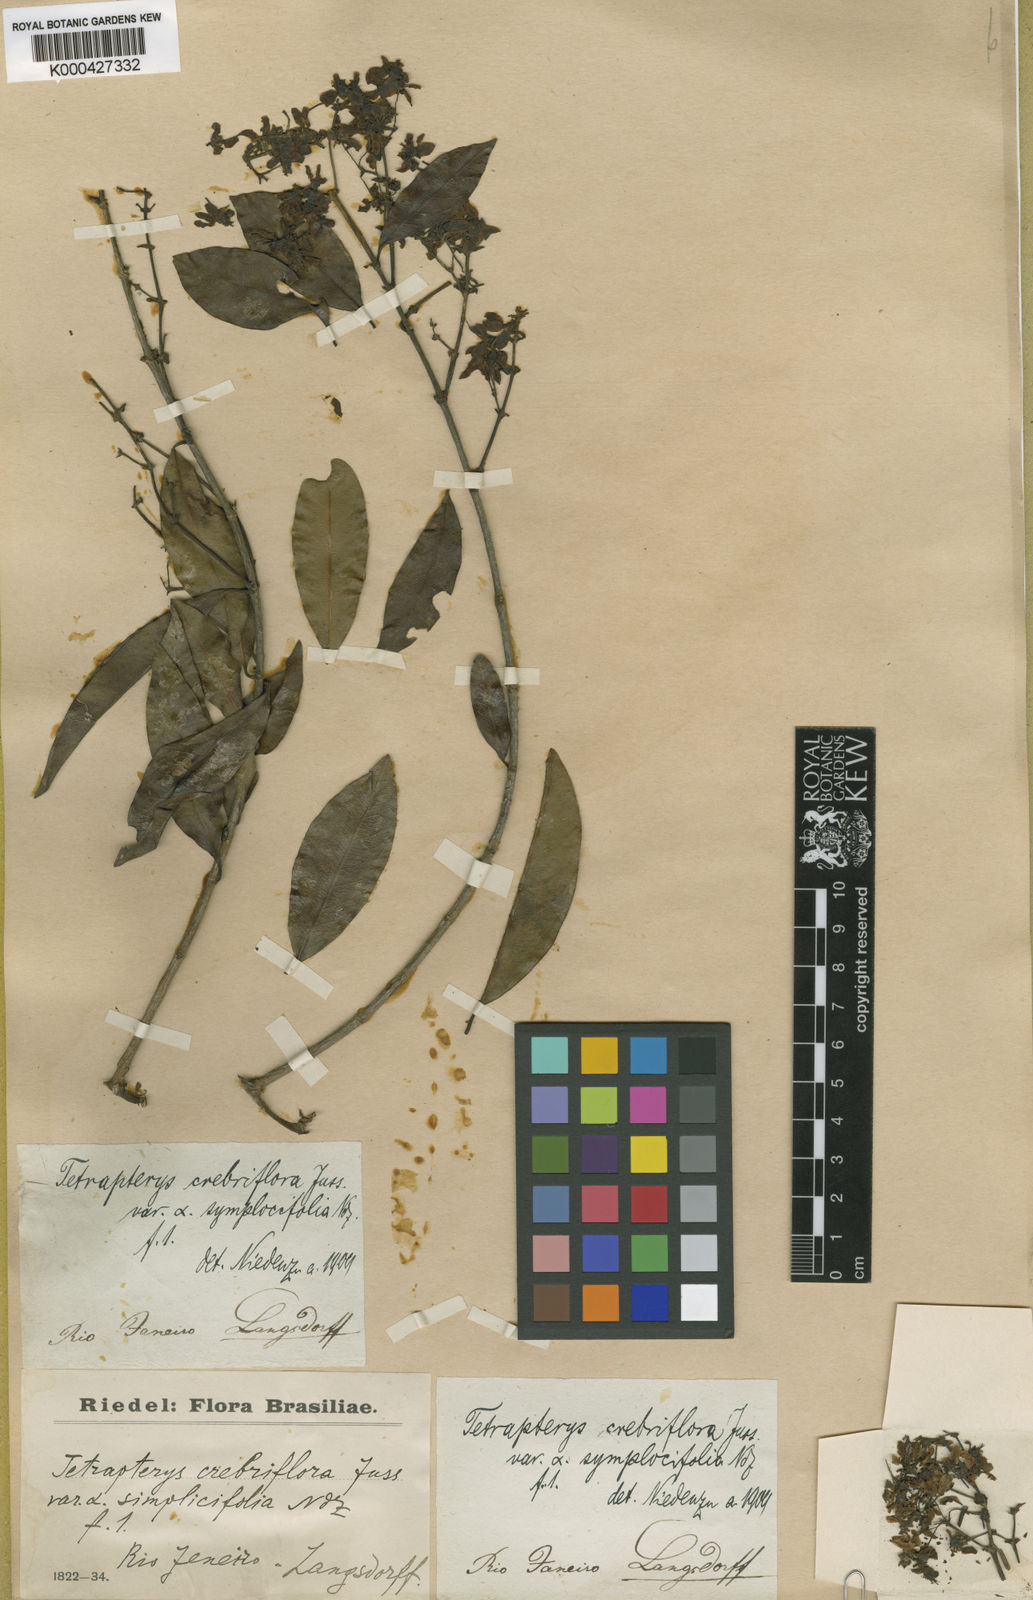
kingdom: Plantae
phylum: Tracheophyta
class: Magnoliopsida
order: Malpighiales
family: Malpighiaceae
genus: Tetrapterys
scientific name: Tetrapterys mucronata
